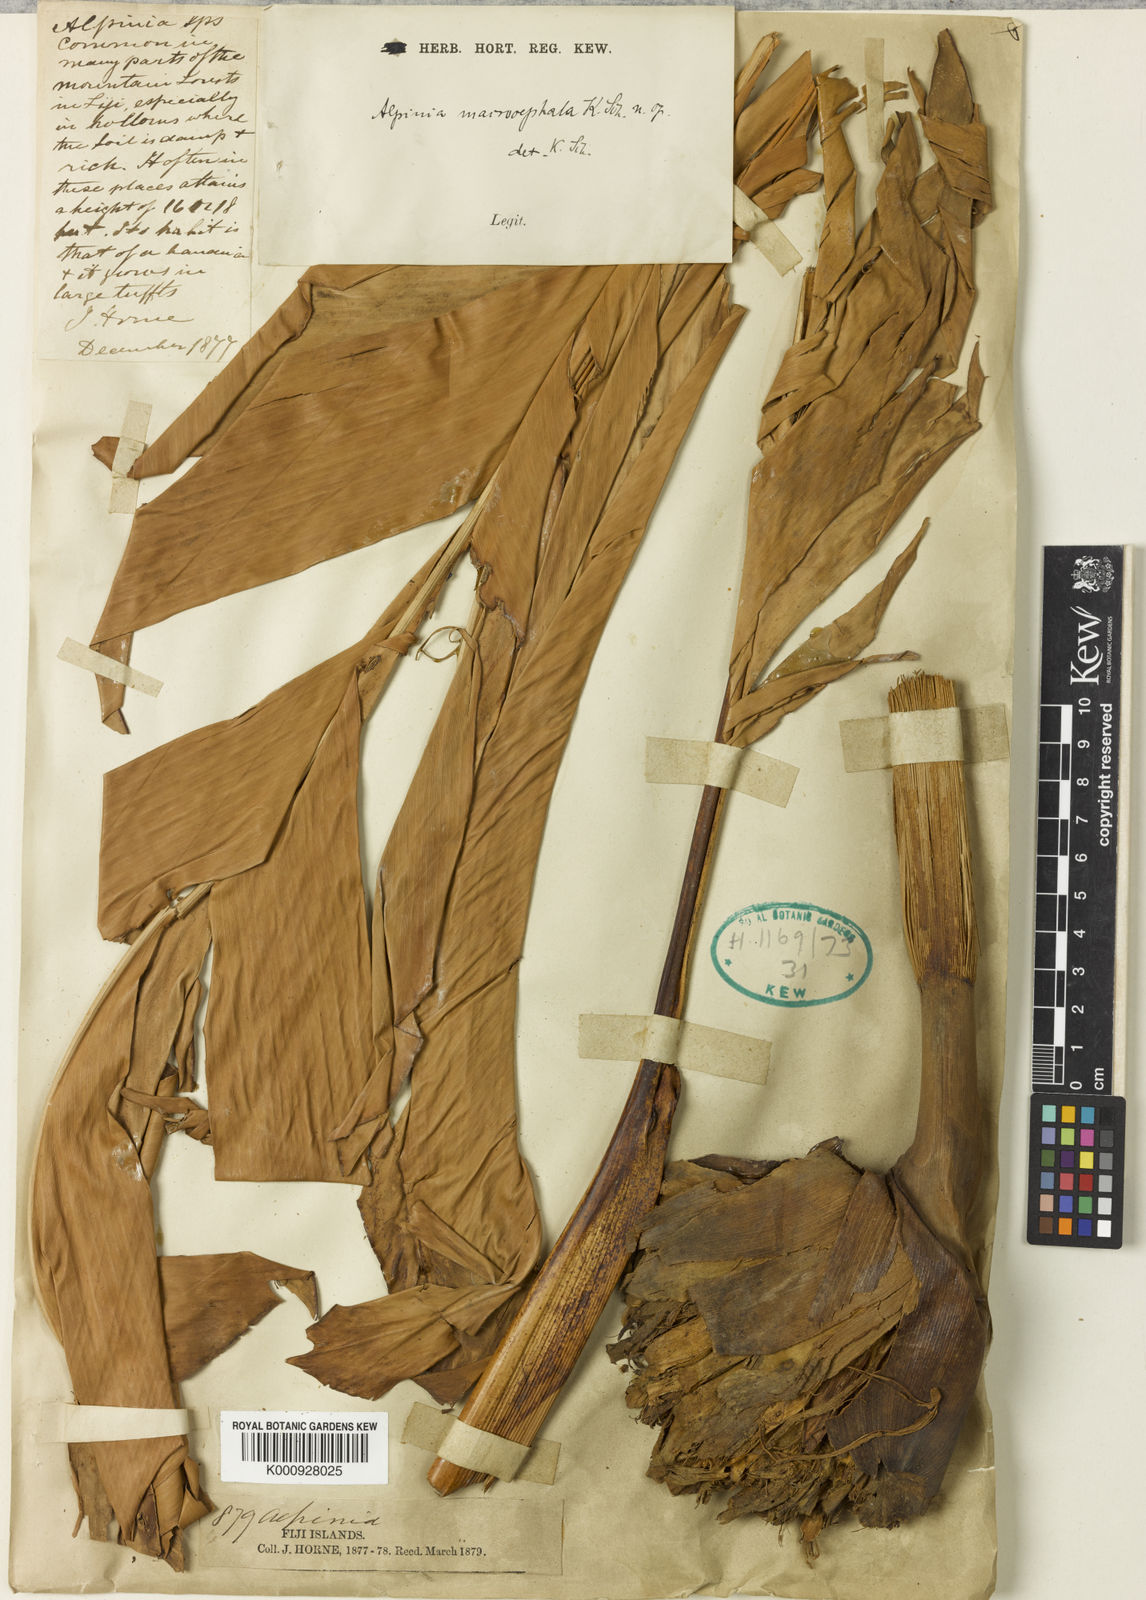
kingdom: Plantae
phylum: Tracheophyta
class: Liliopsida
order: Zingiberales
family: Zingiberaceae
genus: Alpinia
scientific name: Alpinia macrocephala
